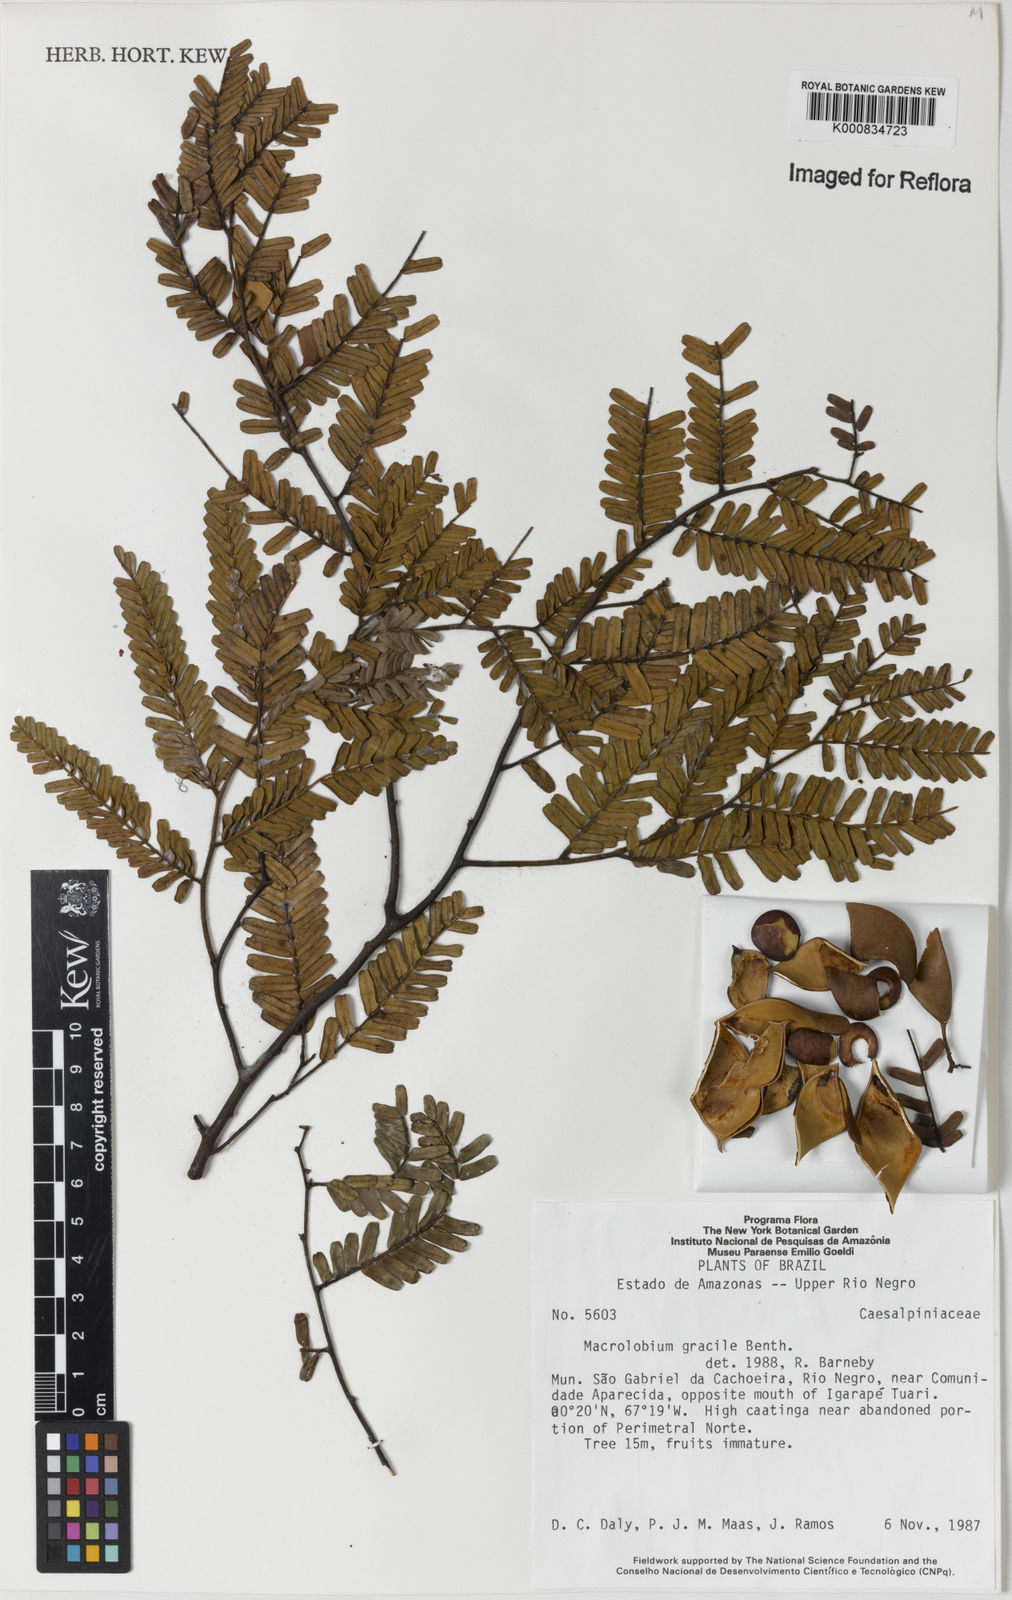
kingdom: Plantae
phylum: Tracheophyta
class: Magnoliopsida
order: Fabales
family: Fabaceae
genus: Macrolobium
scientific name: Macrolobium
